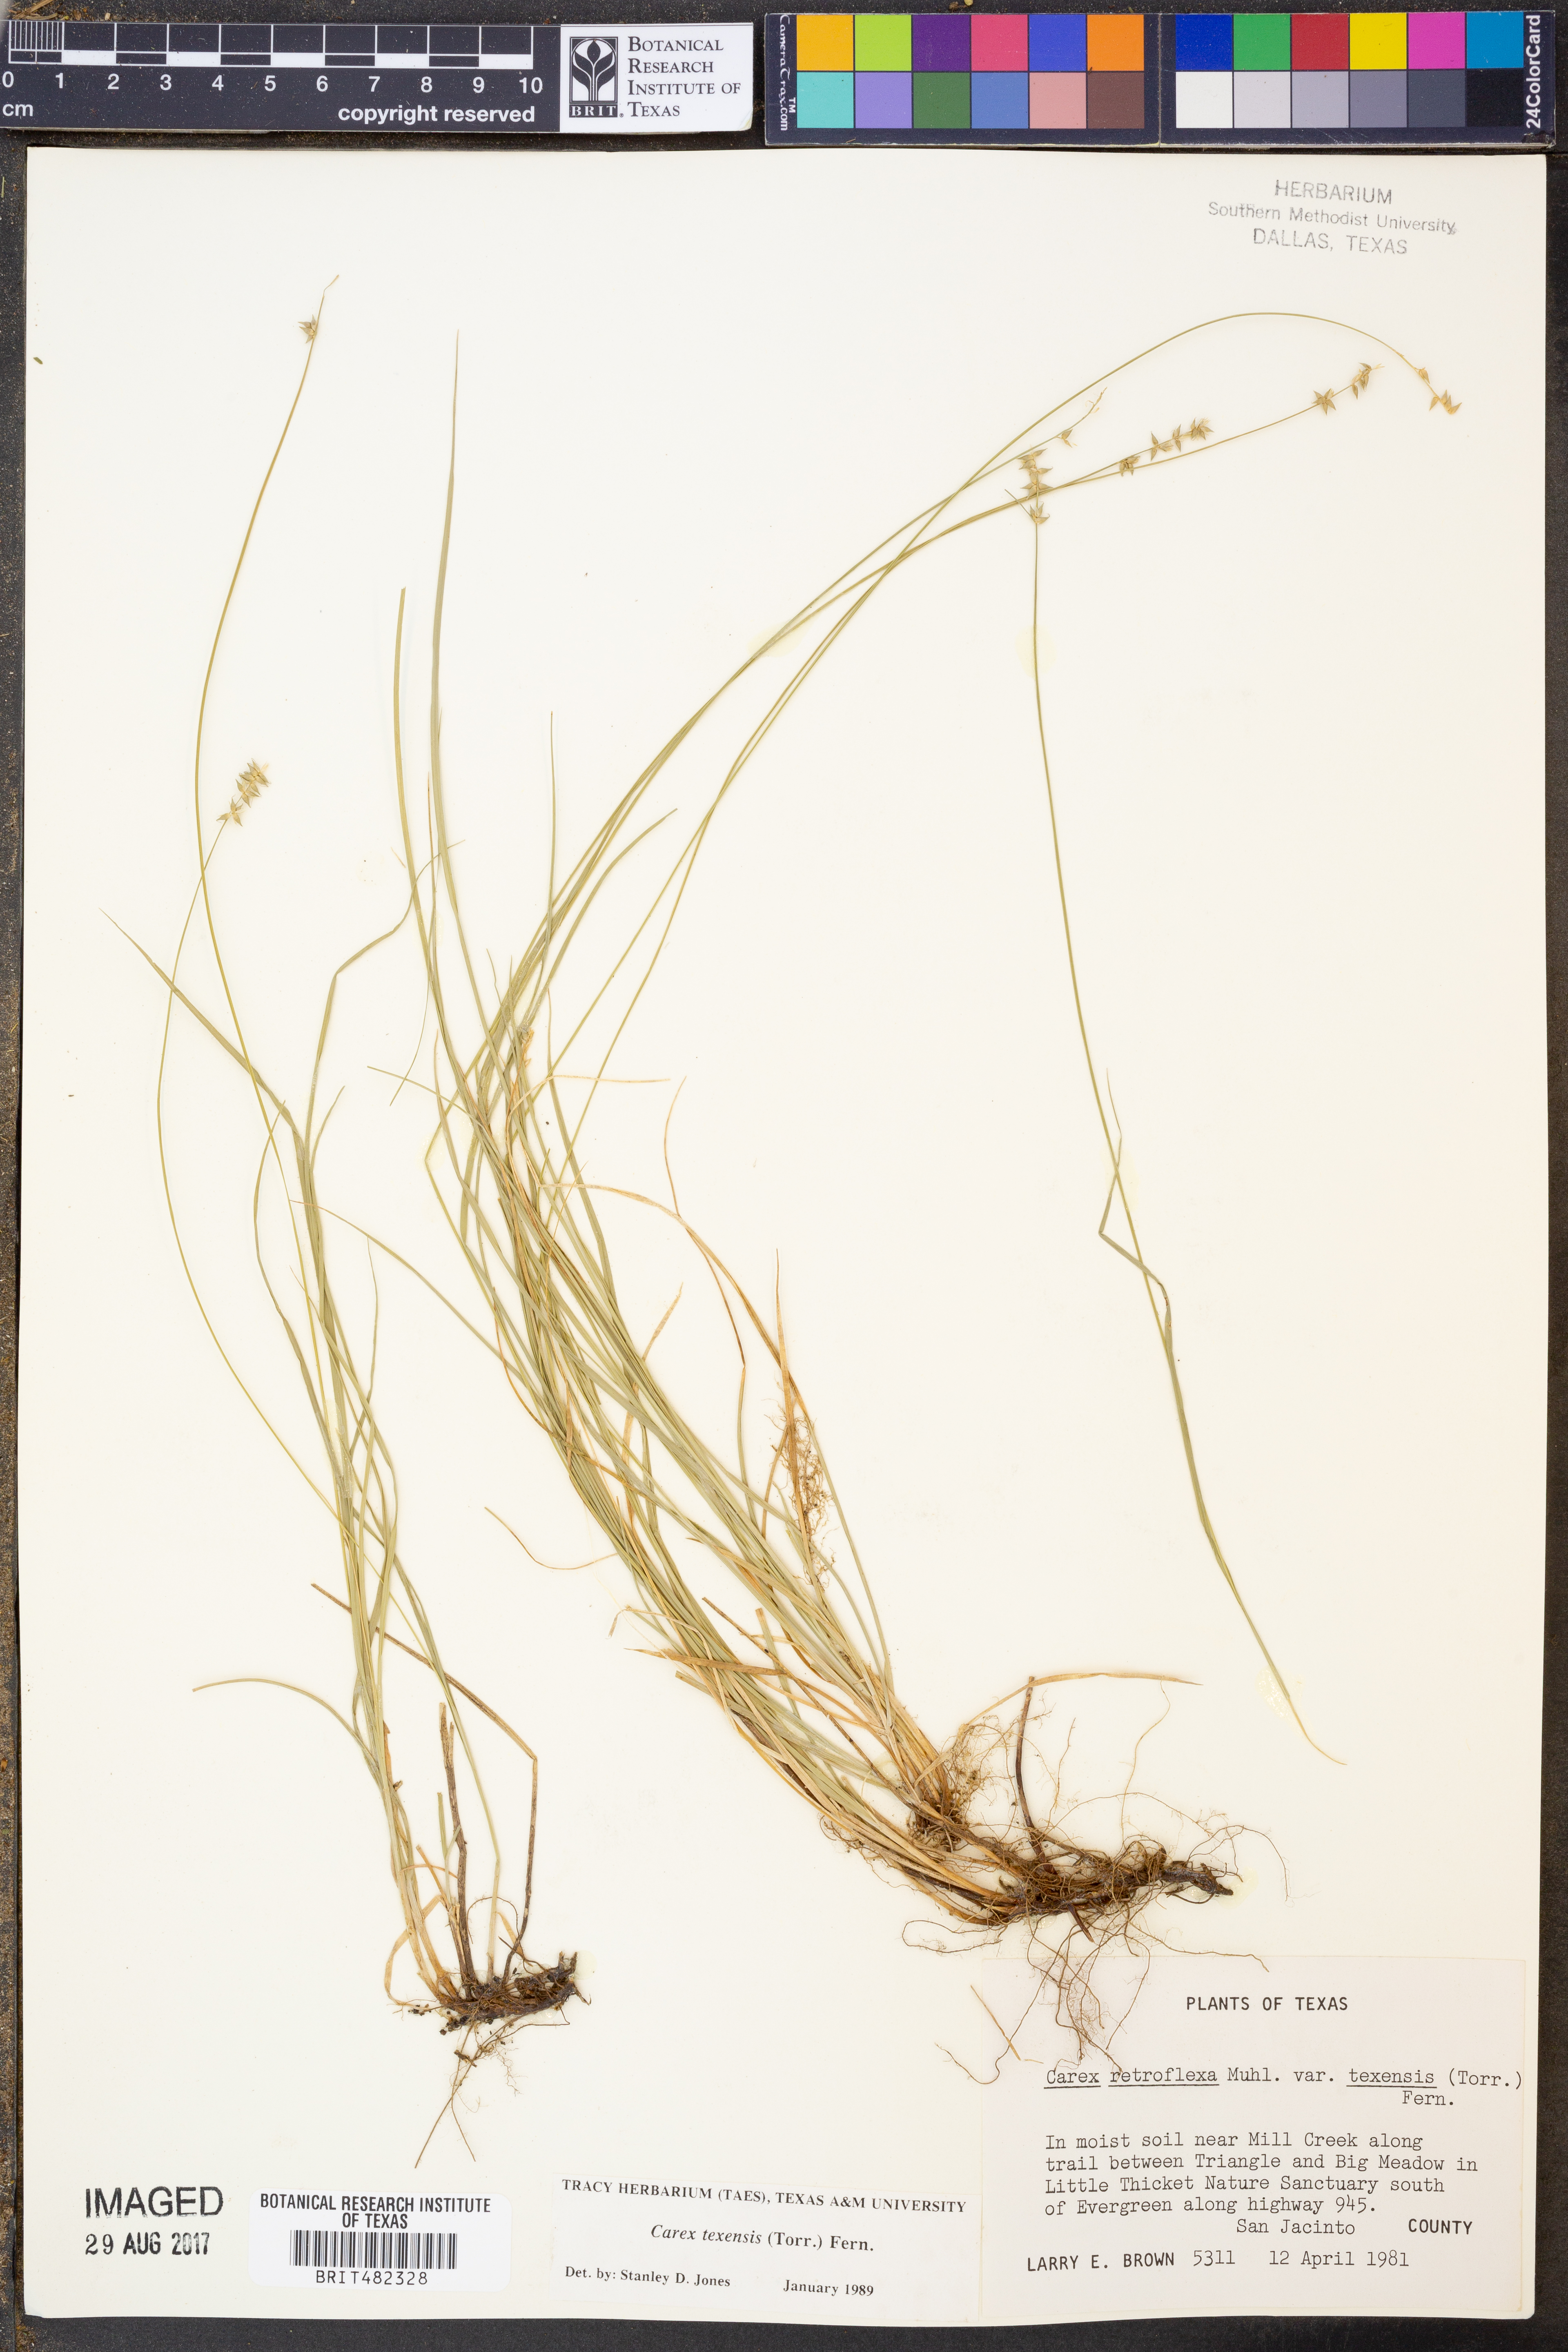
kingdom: Plantae
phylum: Tracheophyta
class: Liliopsida
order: Poales
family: Cyperaceae
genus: Carex
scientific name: Carex texensis
